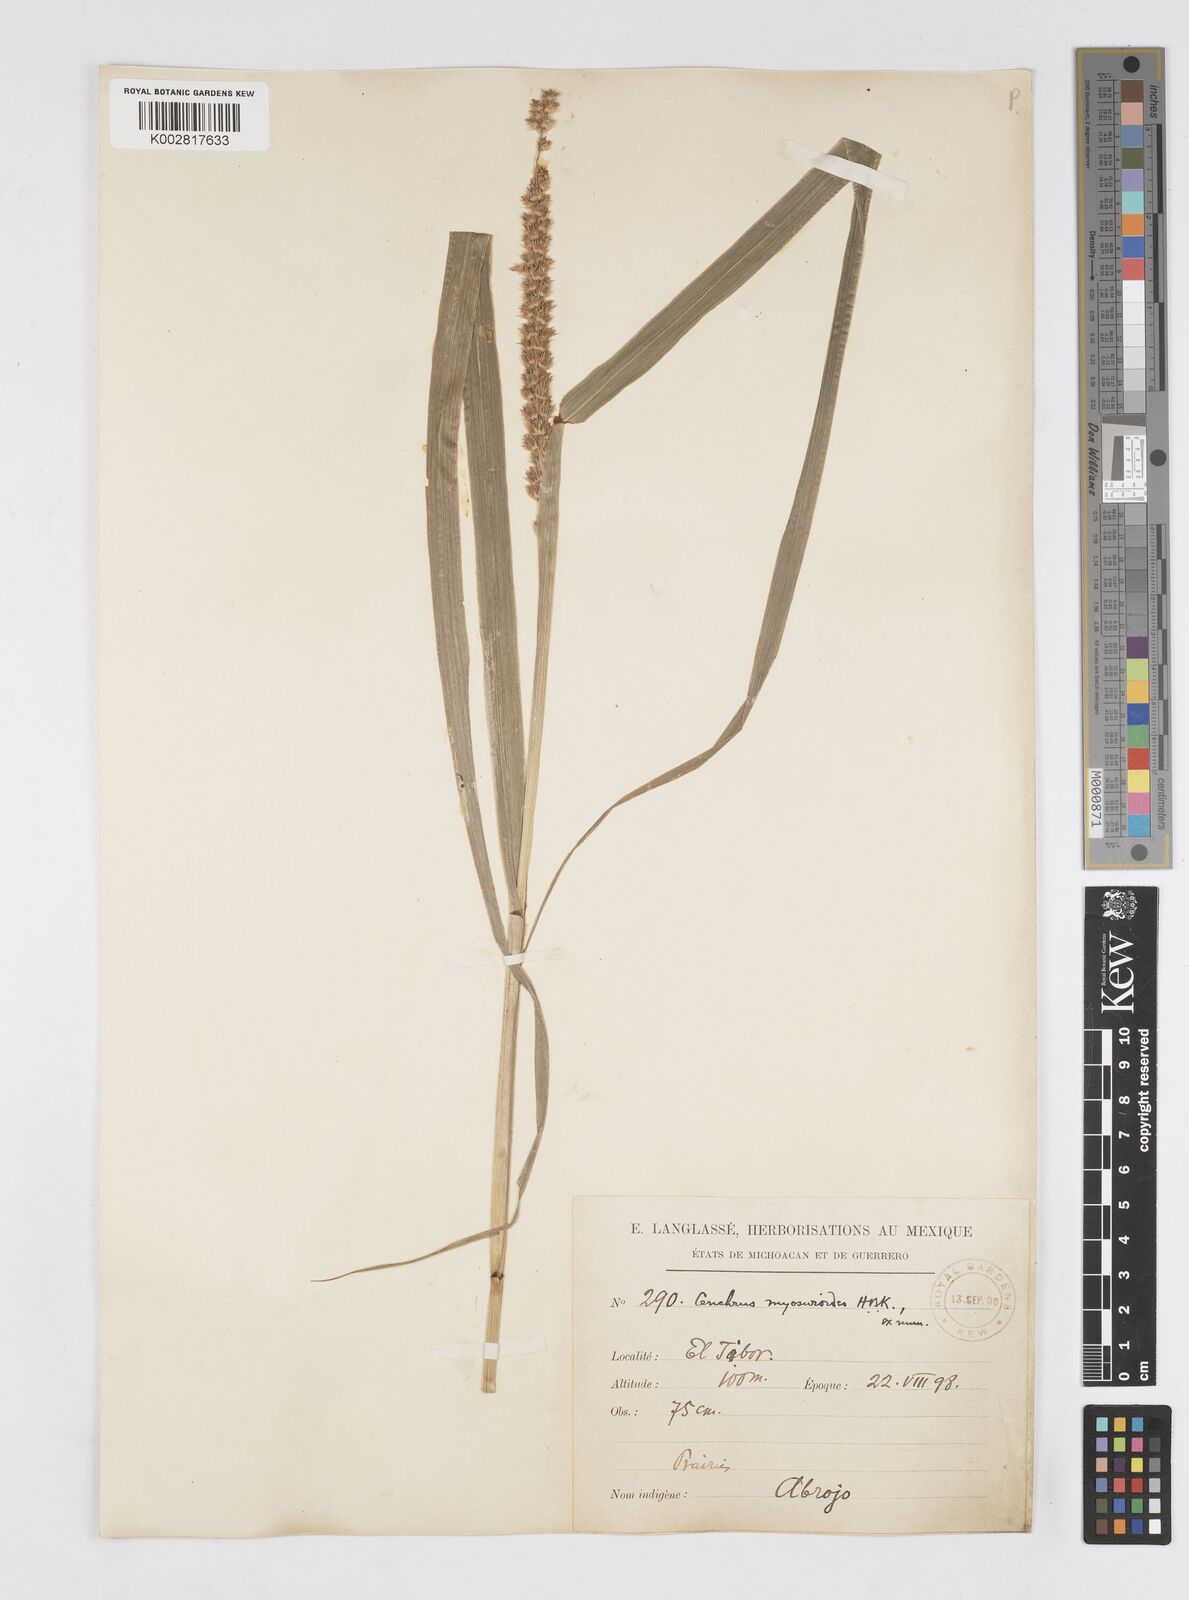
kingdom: Plantae
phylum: Tracheophyta
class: Liliopsida
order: Poales
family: Poaceae
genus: Cenchrus
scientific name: Cenchrus myosuroides
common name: Big sandbur
